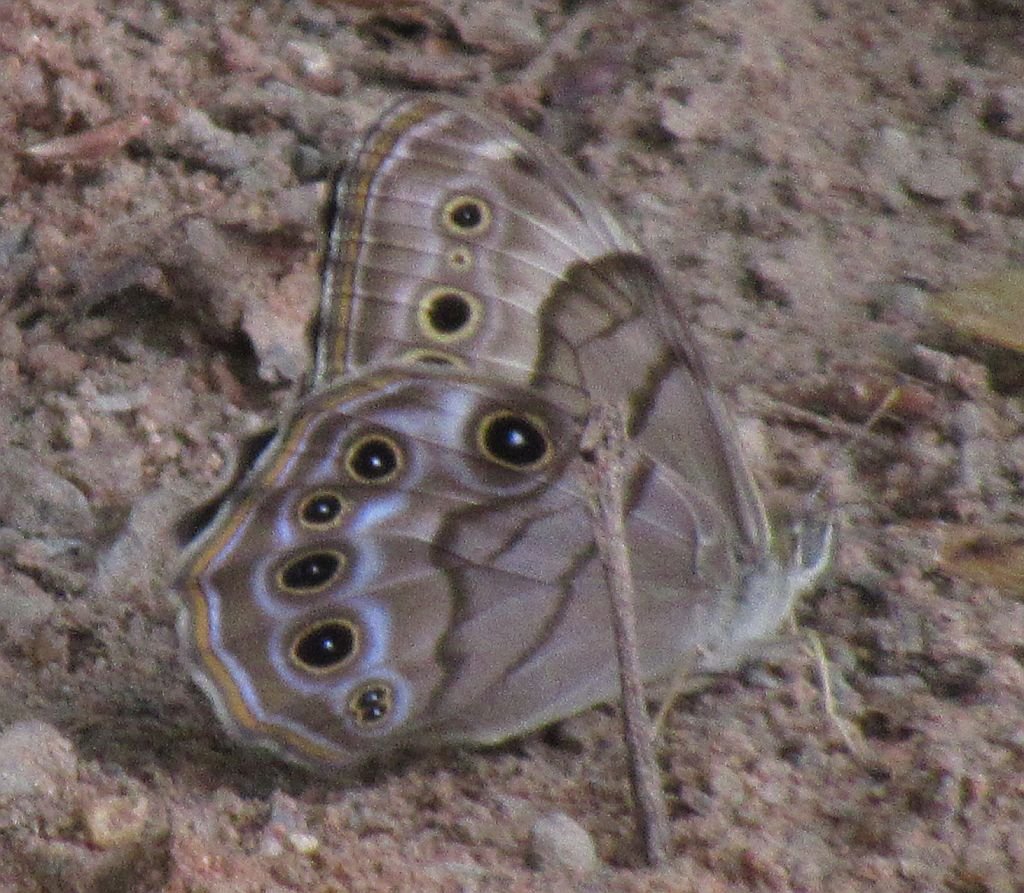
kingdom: Animalia
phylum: Arthropoda
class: Insecta
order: Lepidoptera
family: Nymphalidae
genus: Lethe
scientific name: Lethe anthedon
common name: Northern Pearly-Eye
